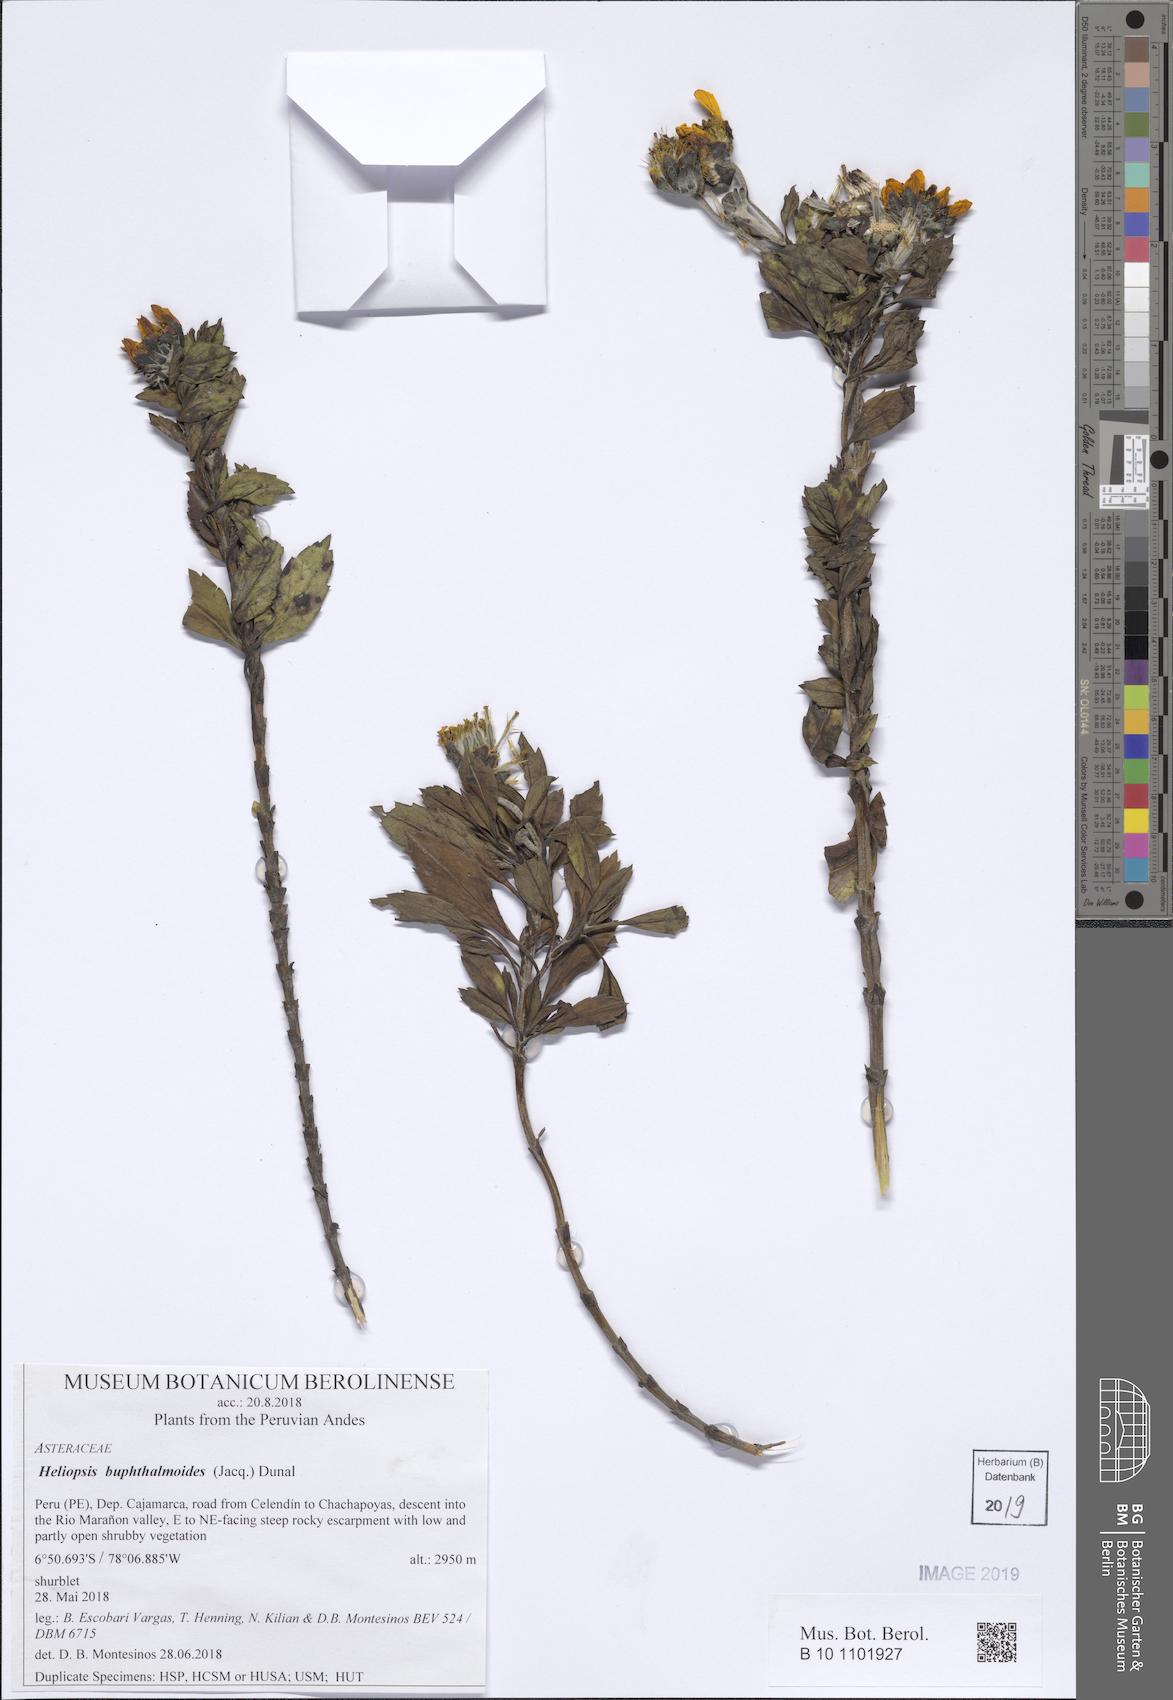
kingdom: Plantae
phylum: Tracheophyta
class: Magnoliopsida
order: Asterales
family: Asteraceae
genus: Heliopsis
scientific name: Heliopsis buphthalmoides
